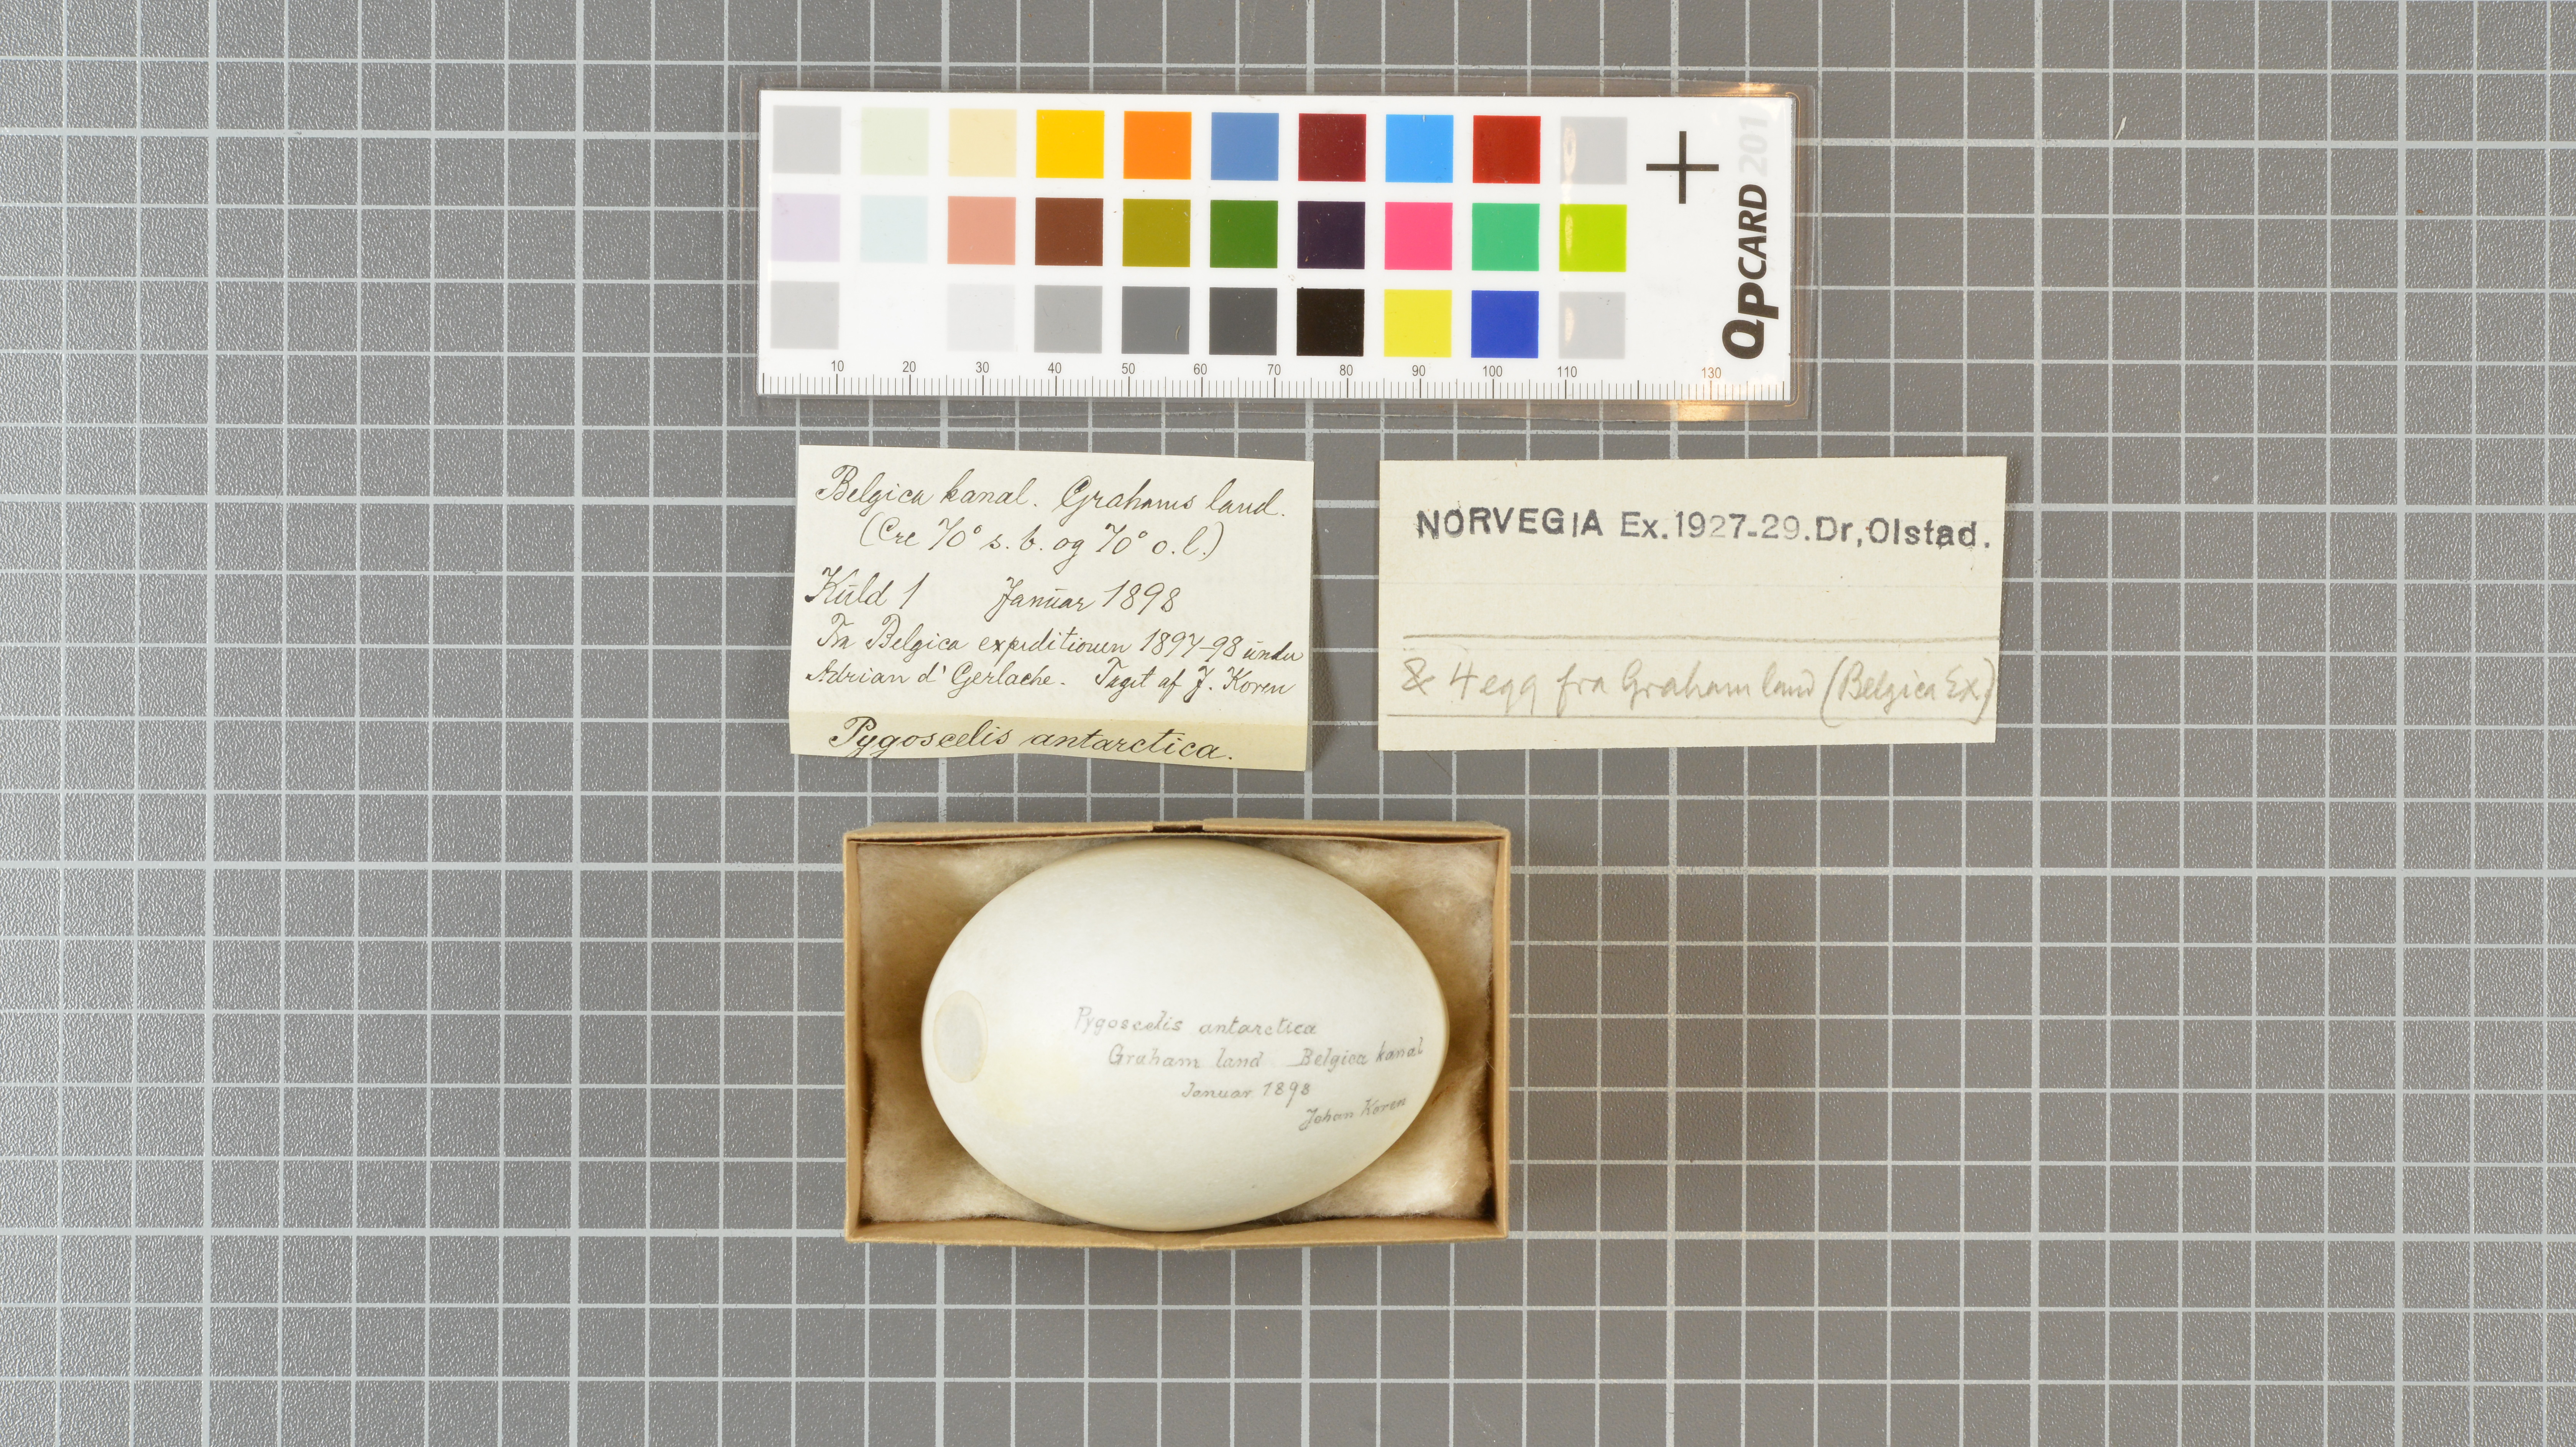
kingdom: Animalia
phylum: Chordata
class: Aves
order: Sphenisciformes
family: Spheniscidae
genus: Pygoscelis
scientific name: Pygoscelis antarcticus
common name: Chinstrap penguin
